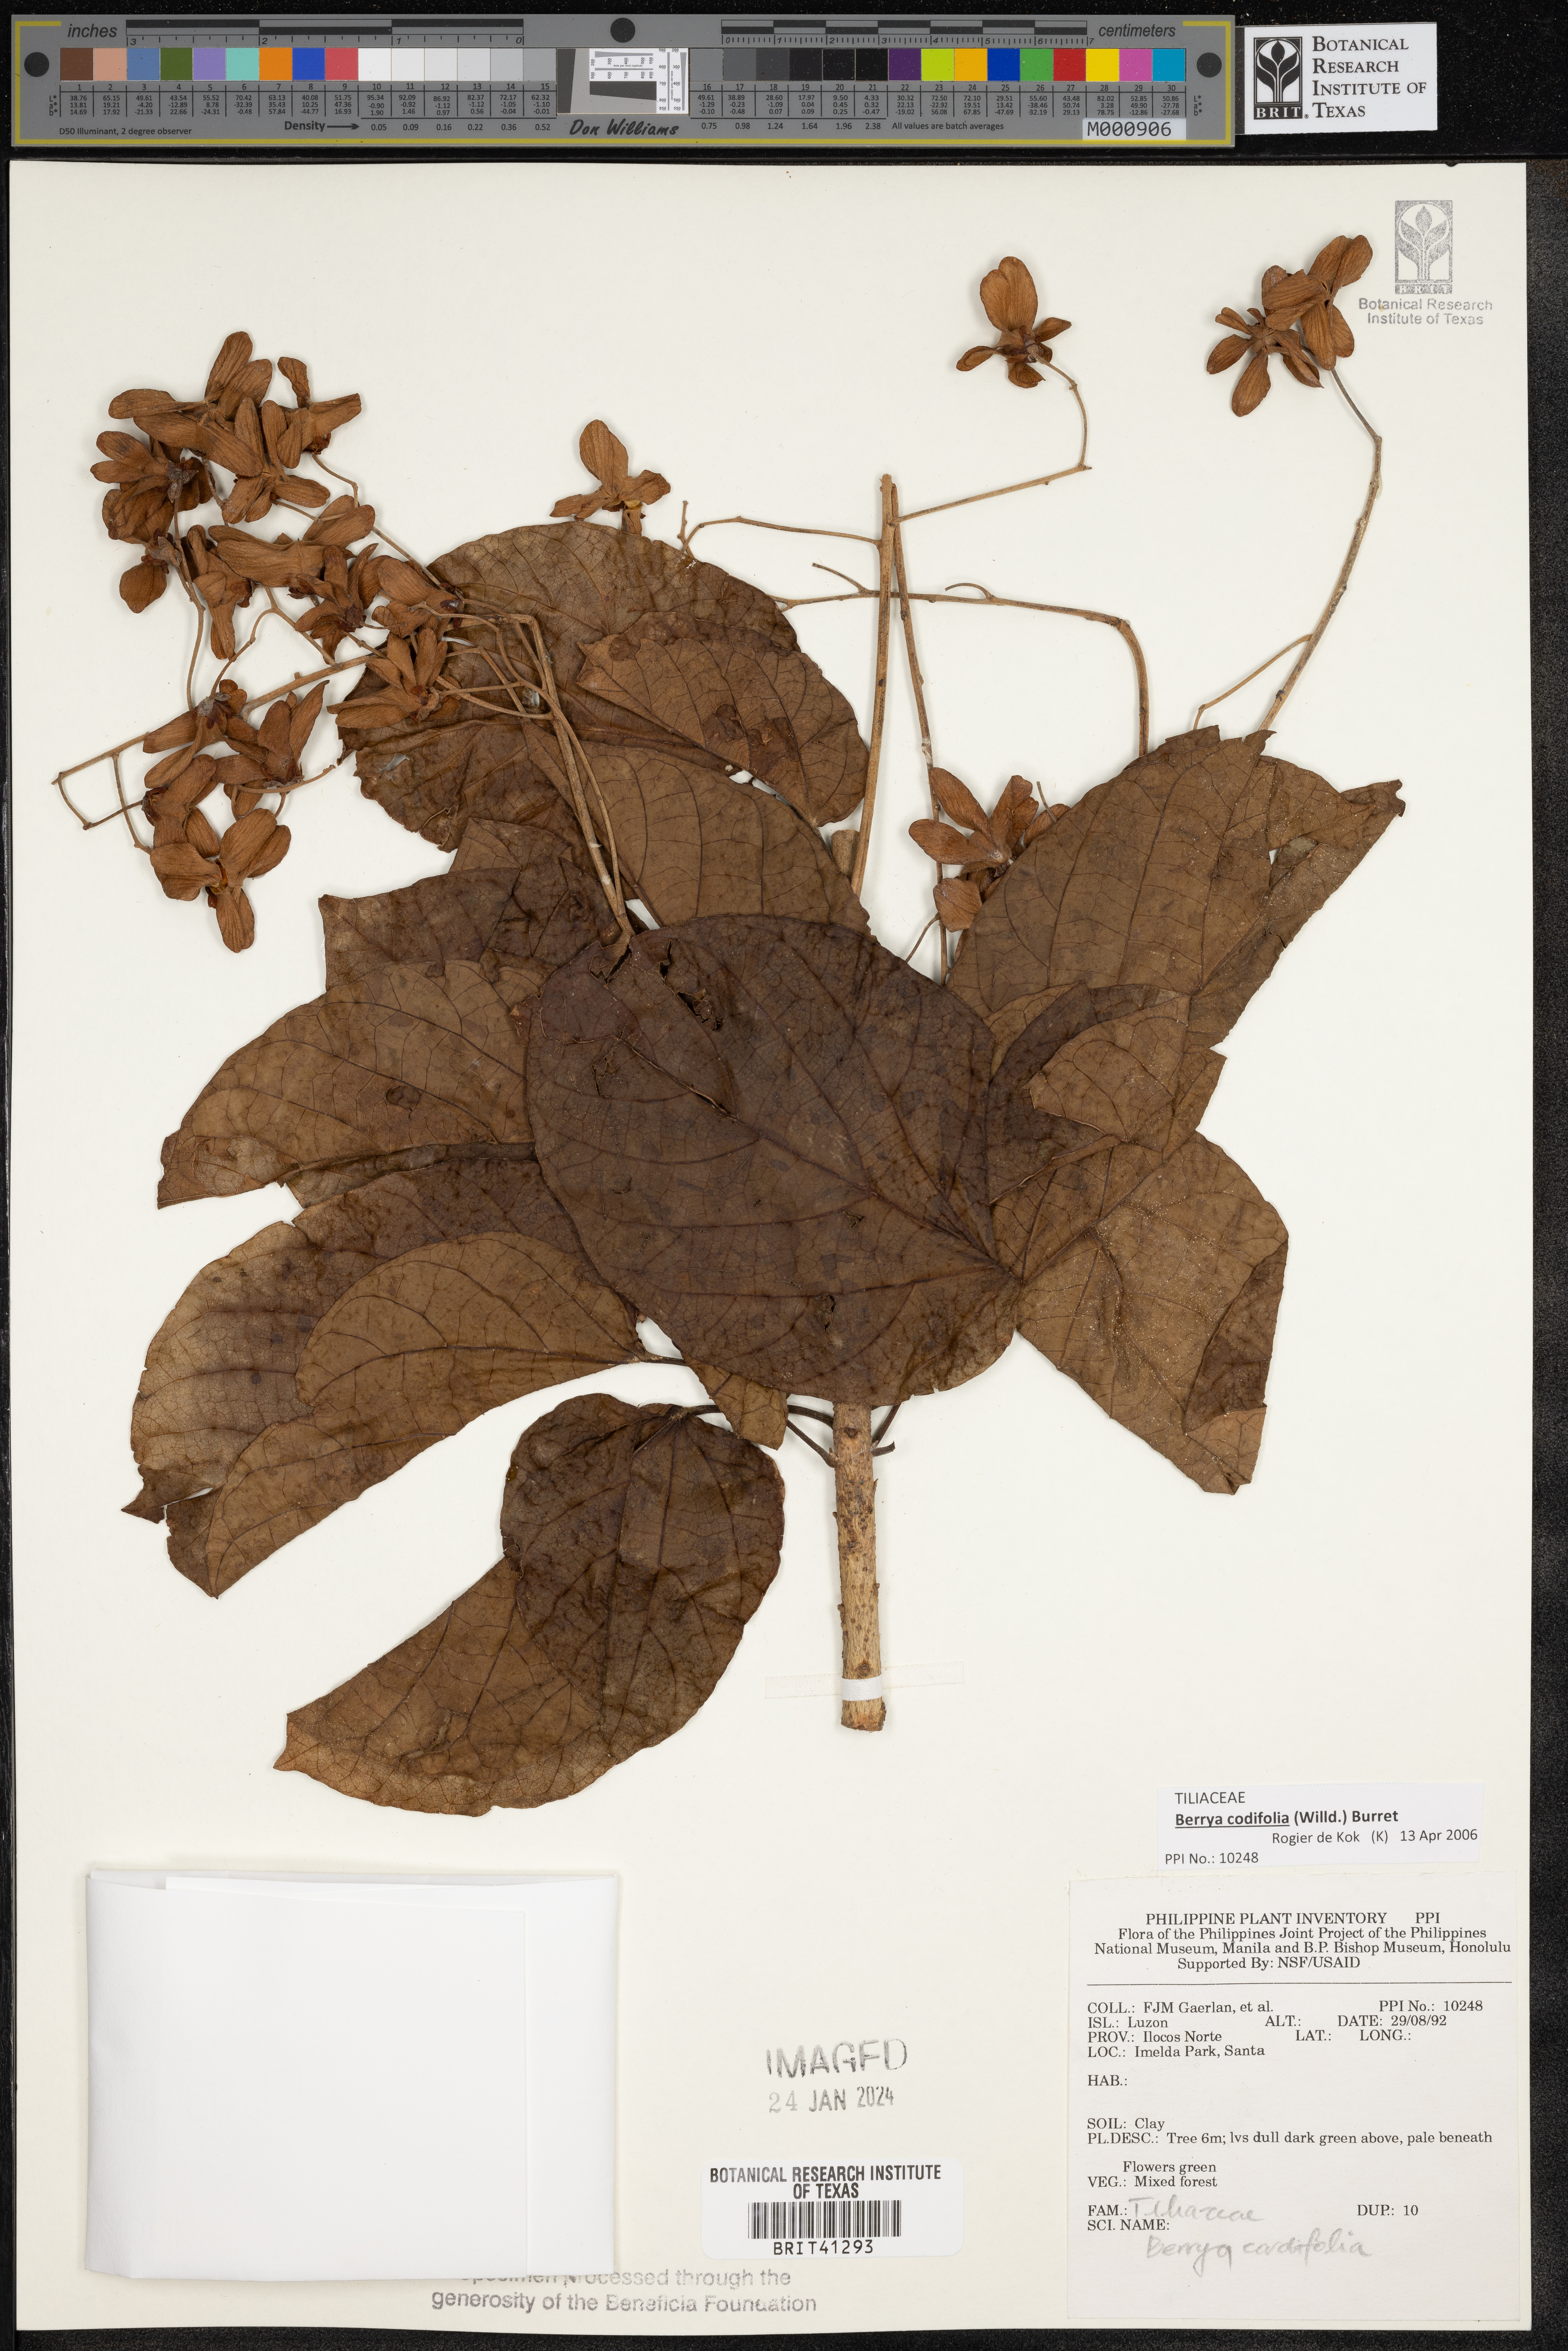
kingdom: Plantae
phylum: Tracheophyta
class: Magnoliopsida
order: Malvales
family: Malvaceae
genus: Berrya
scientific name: Berrya cordifolia
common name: Trincomalee
